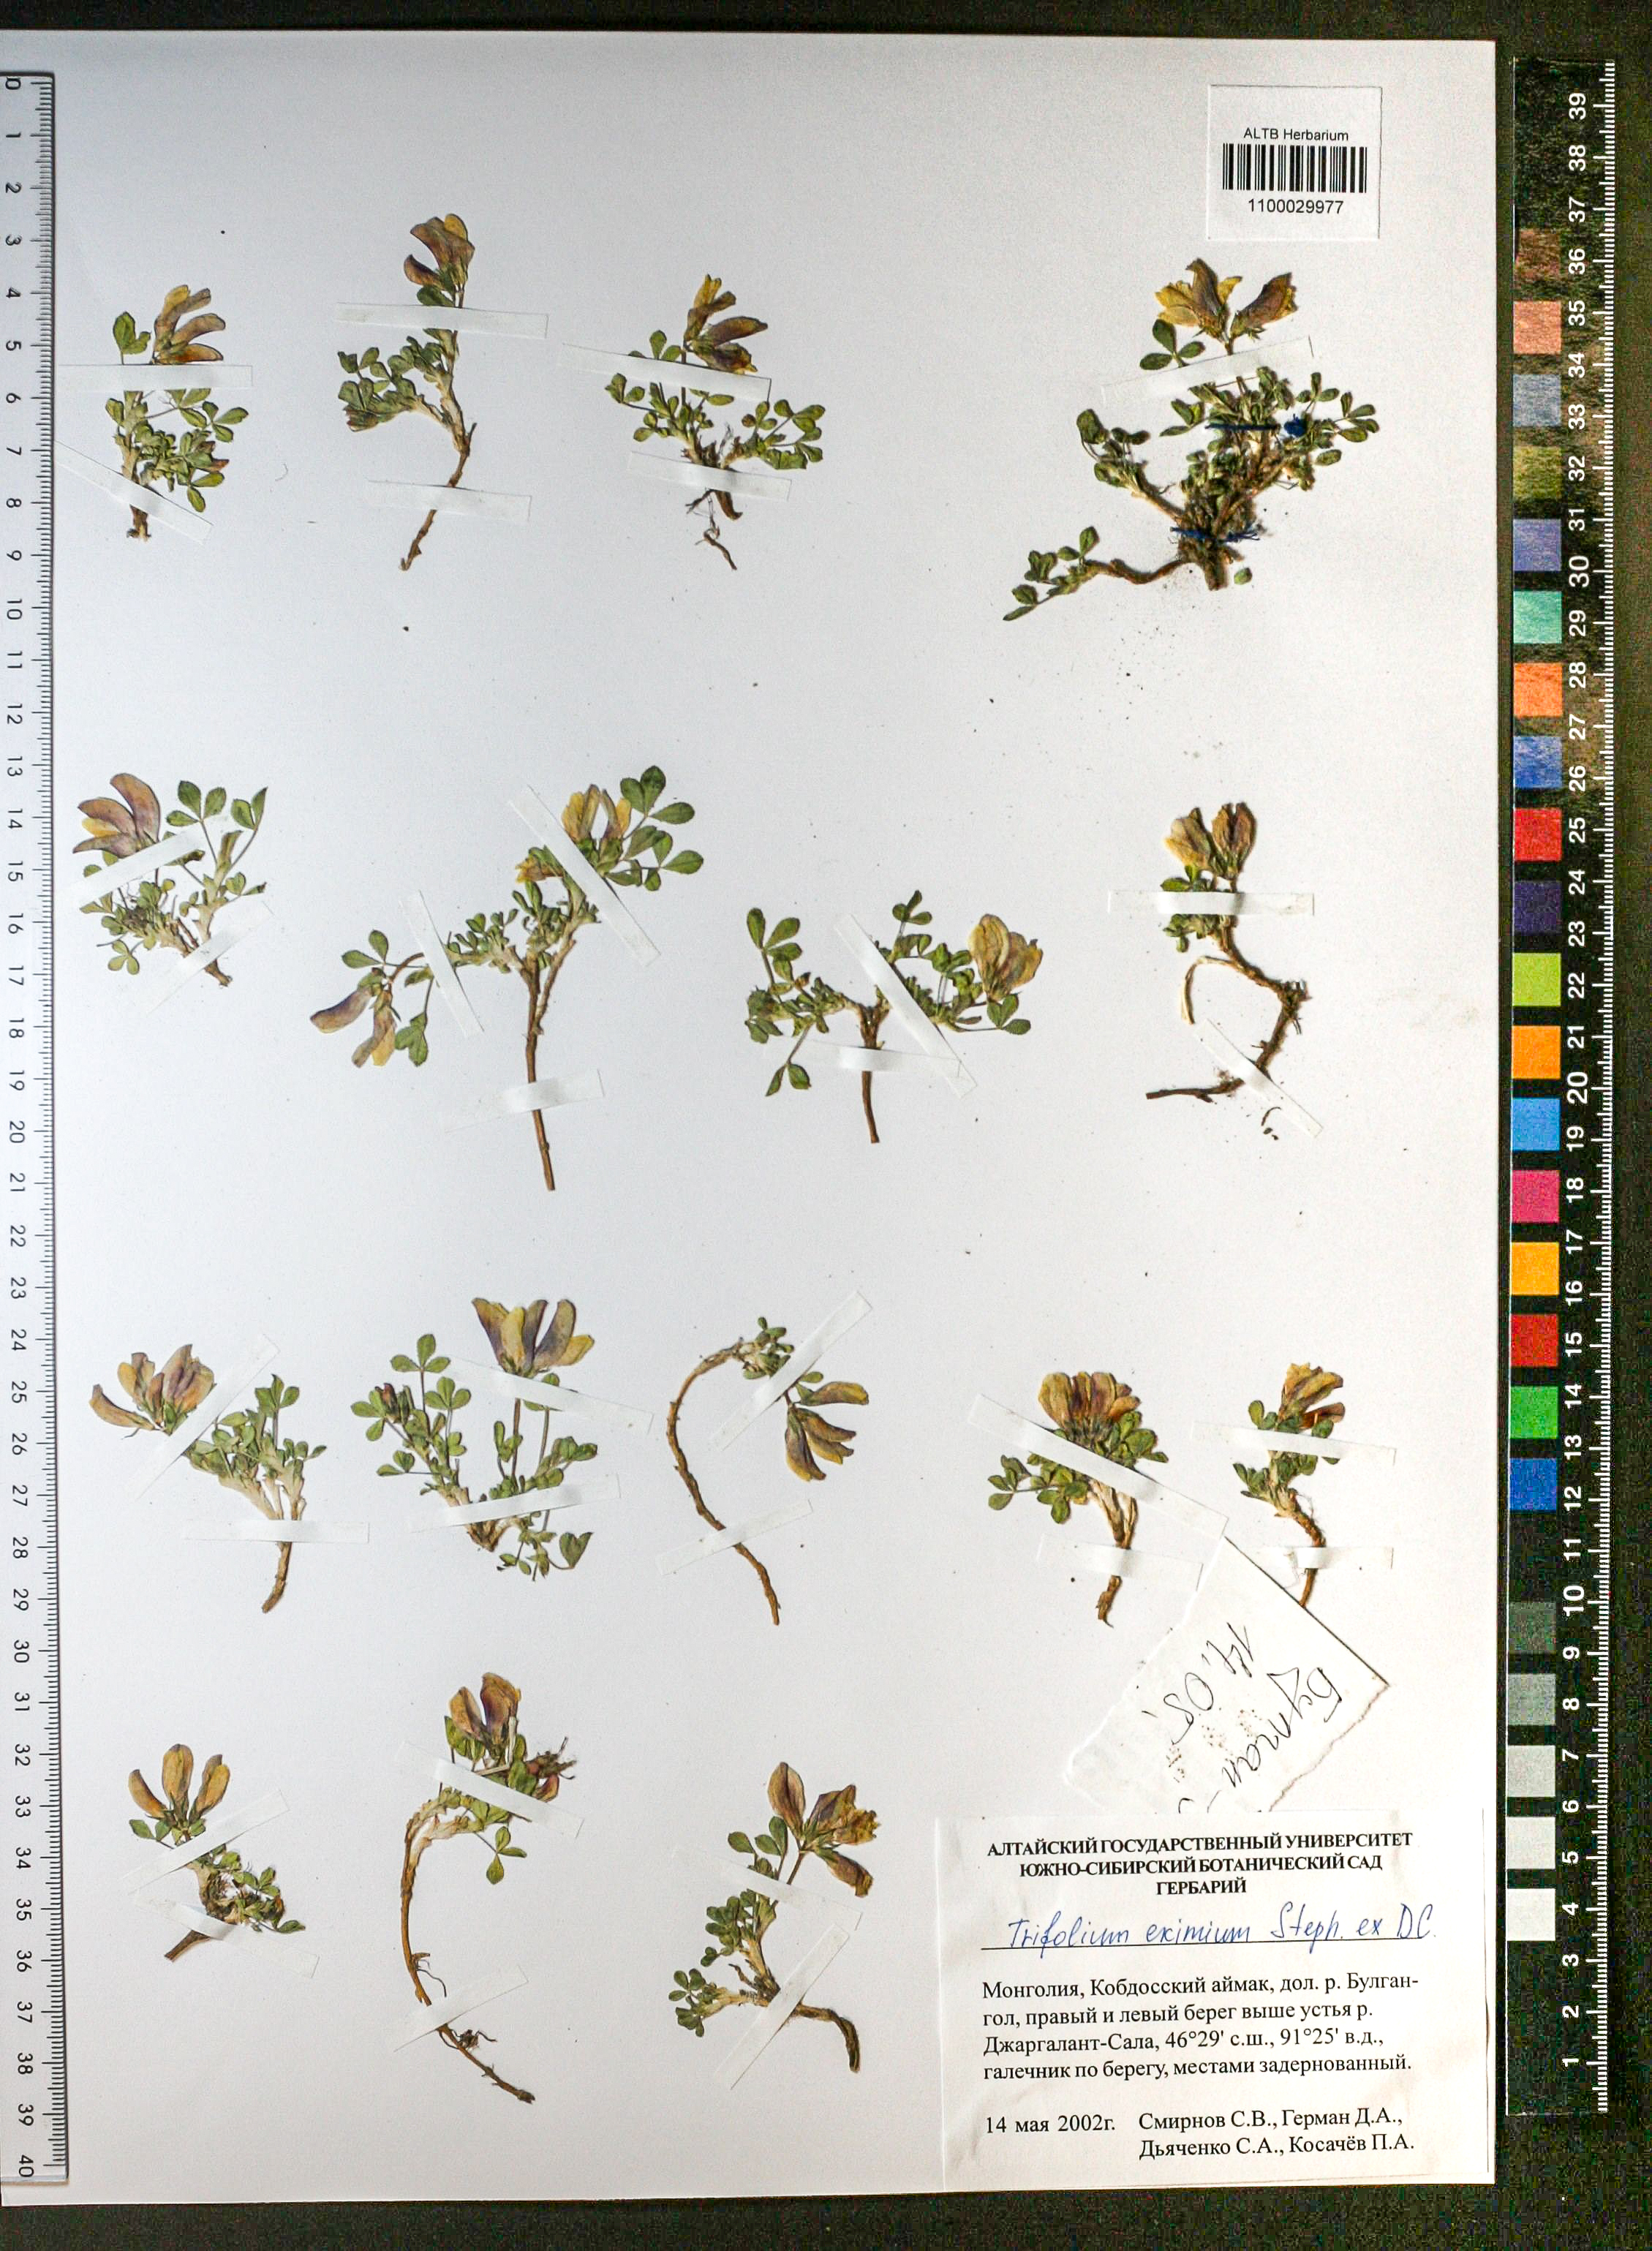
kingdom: Plantae
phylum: Tracheophyta
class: Magnoliopsida
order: Fabales
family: Fabaceae
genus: Trifolium
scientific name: Trifolium eximium
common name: Excellent clover
